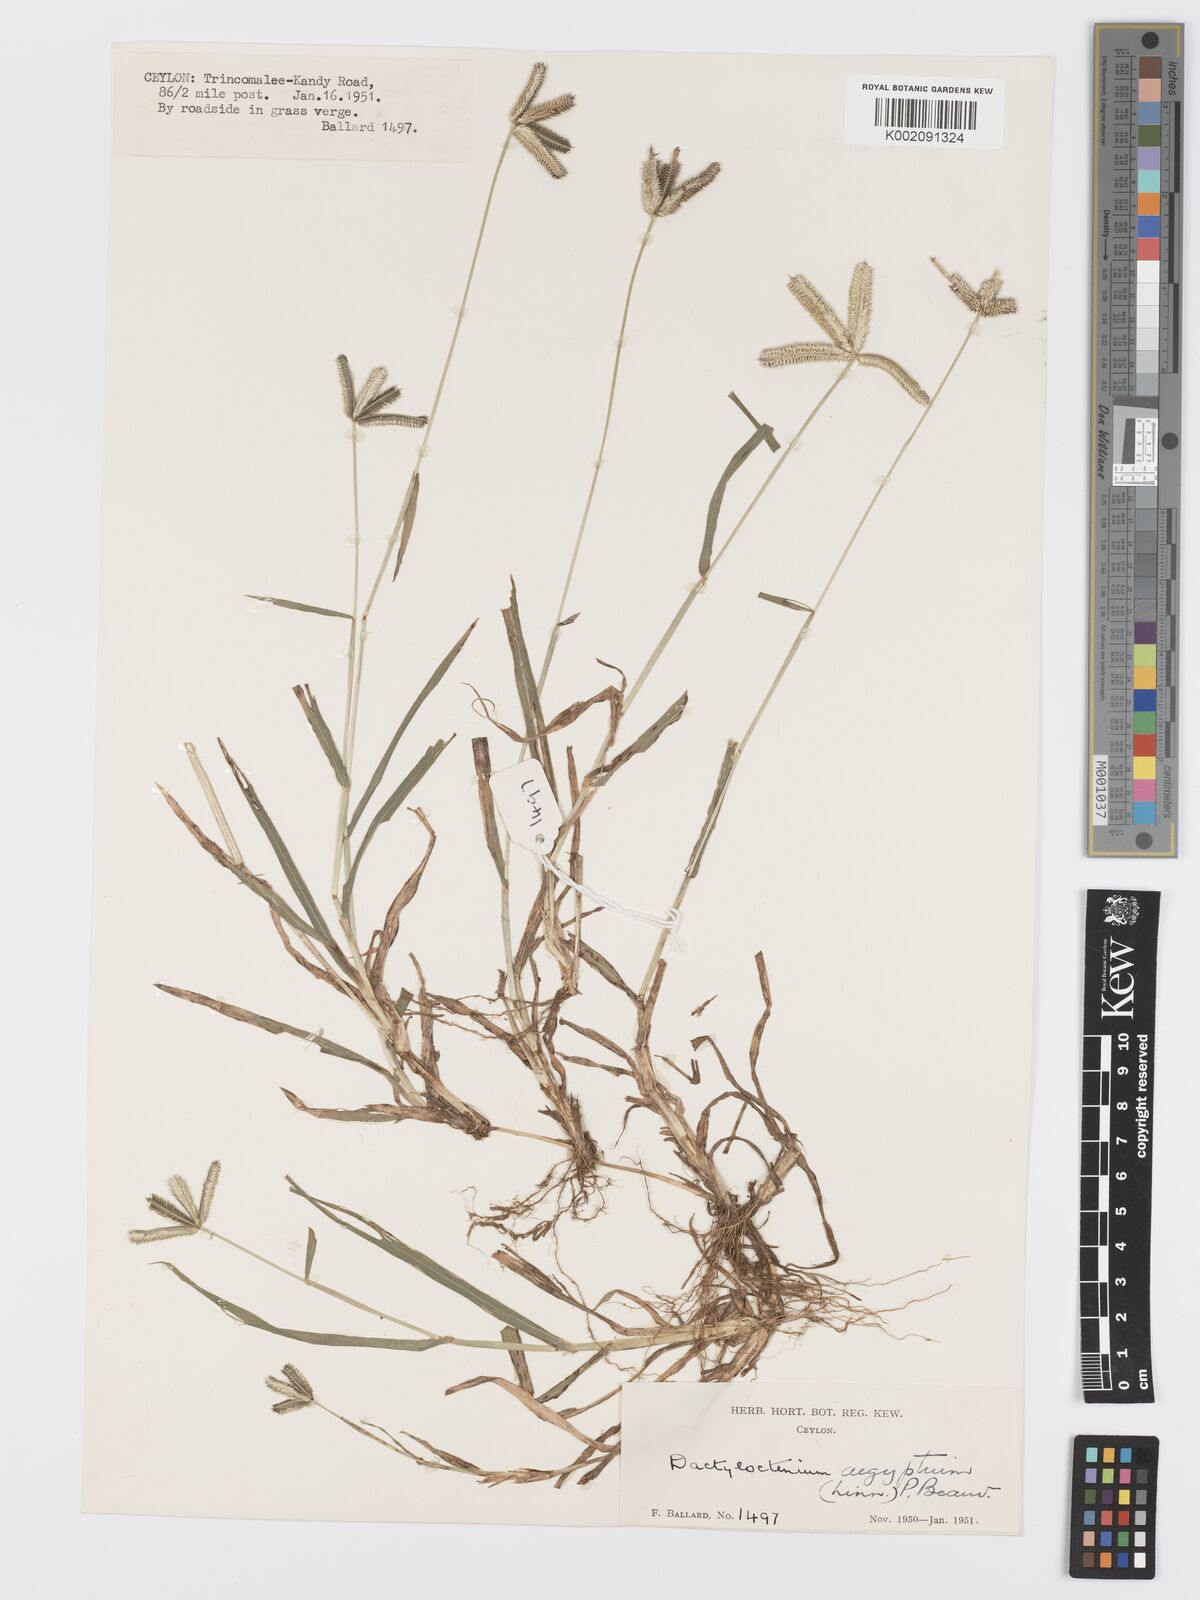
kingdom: Plantae
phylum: Tracheophyta
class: Liliopsida
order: Poales
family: Poaceae
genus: Dactyloctenium
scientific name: Dactyloctenium aegyptium
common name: Egyptian grass
